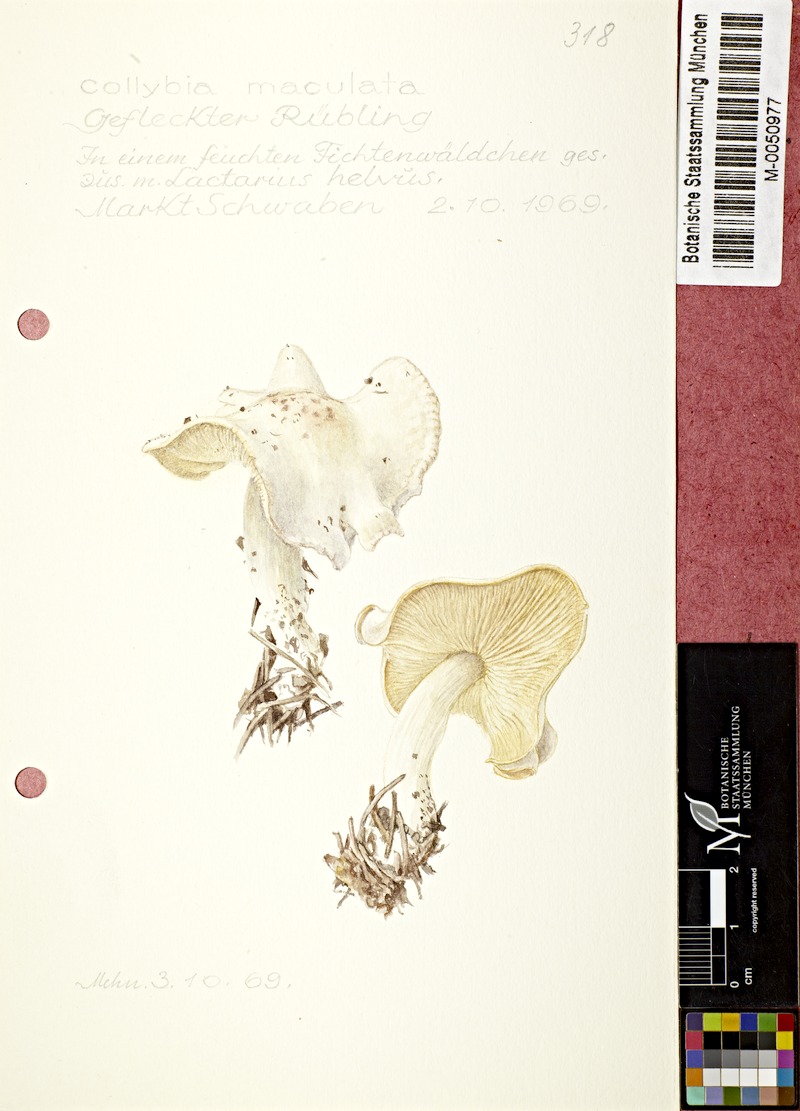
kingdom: Fungi
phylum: Basidiomycota
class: Agaricomycetes
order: Agaricales
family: Omphalotaceae
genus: Rhodocollybia
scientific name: Rhodocollybia maculata
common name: Spotted tough-shank
